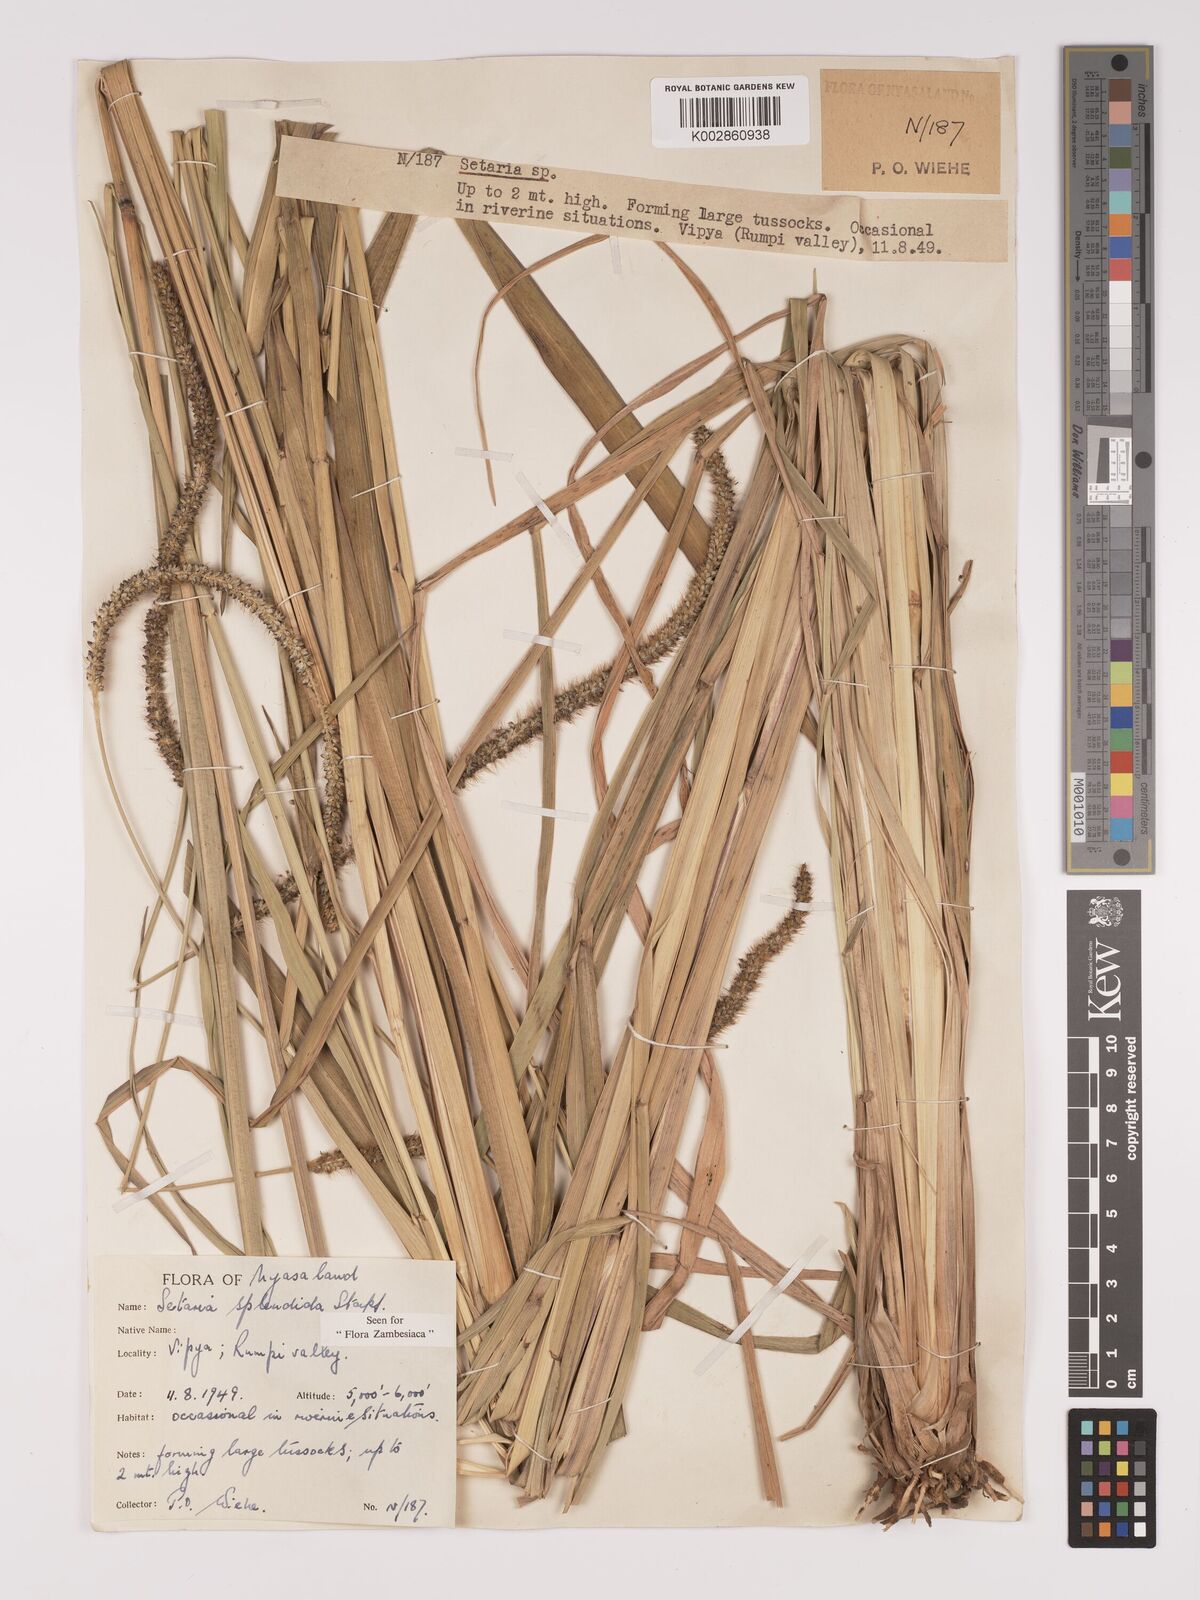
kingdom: Plantae
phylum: Tracheophyta
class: Liliopsida
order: Poales
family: Poaceae
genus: Setaria
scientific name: Setaria sphacelata
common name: African bristlegrass
